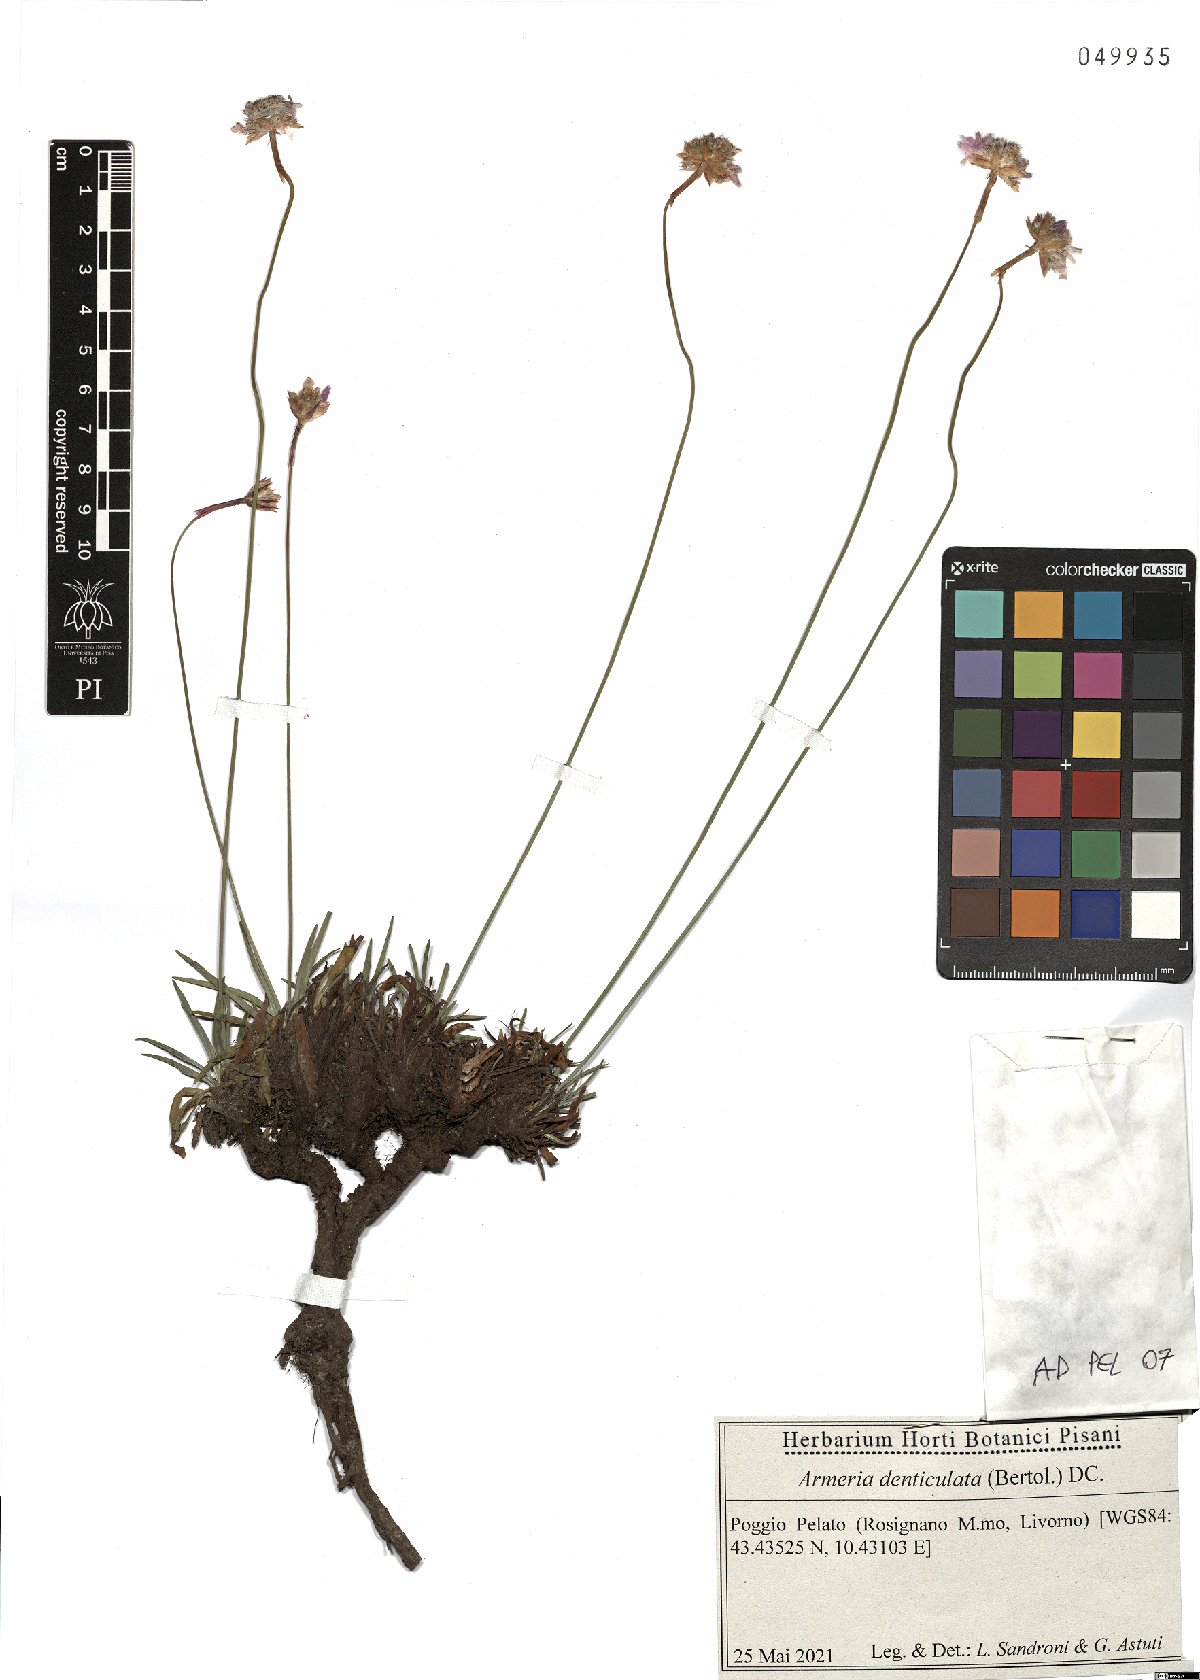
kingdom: Plantae
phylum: Tracheophyta
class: Magnoliopsida
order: Caryophyllales
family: Plumbaginaceae
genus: Armeria
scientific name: Armeria denticulata
